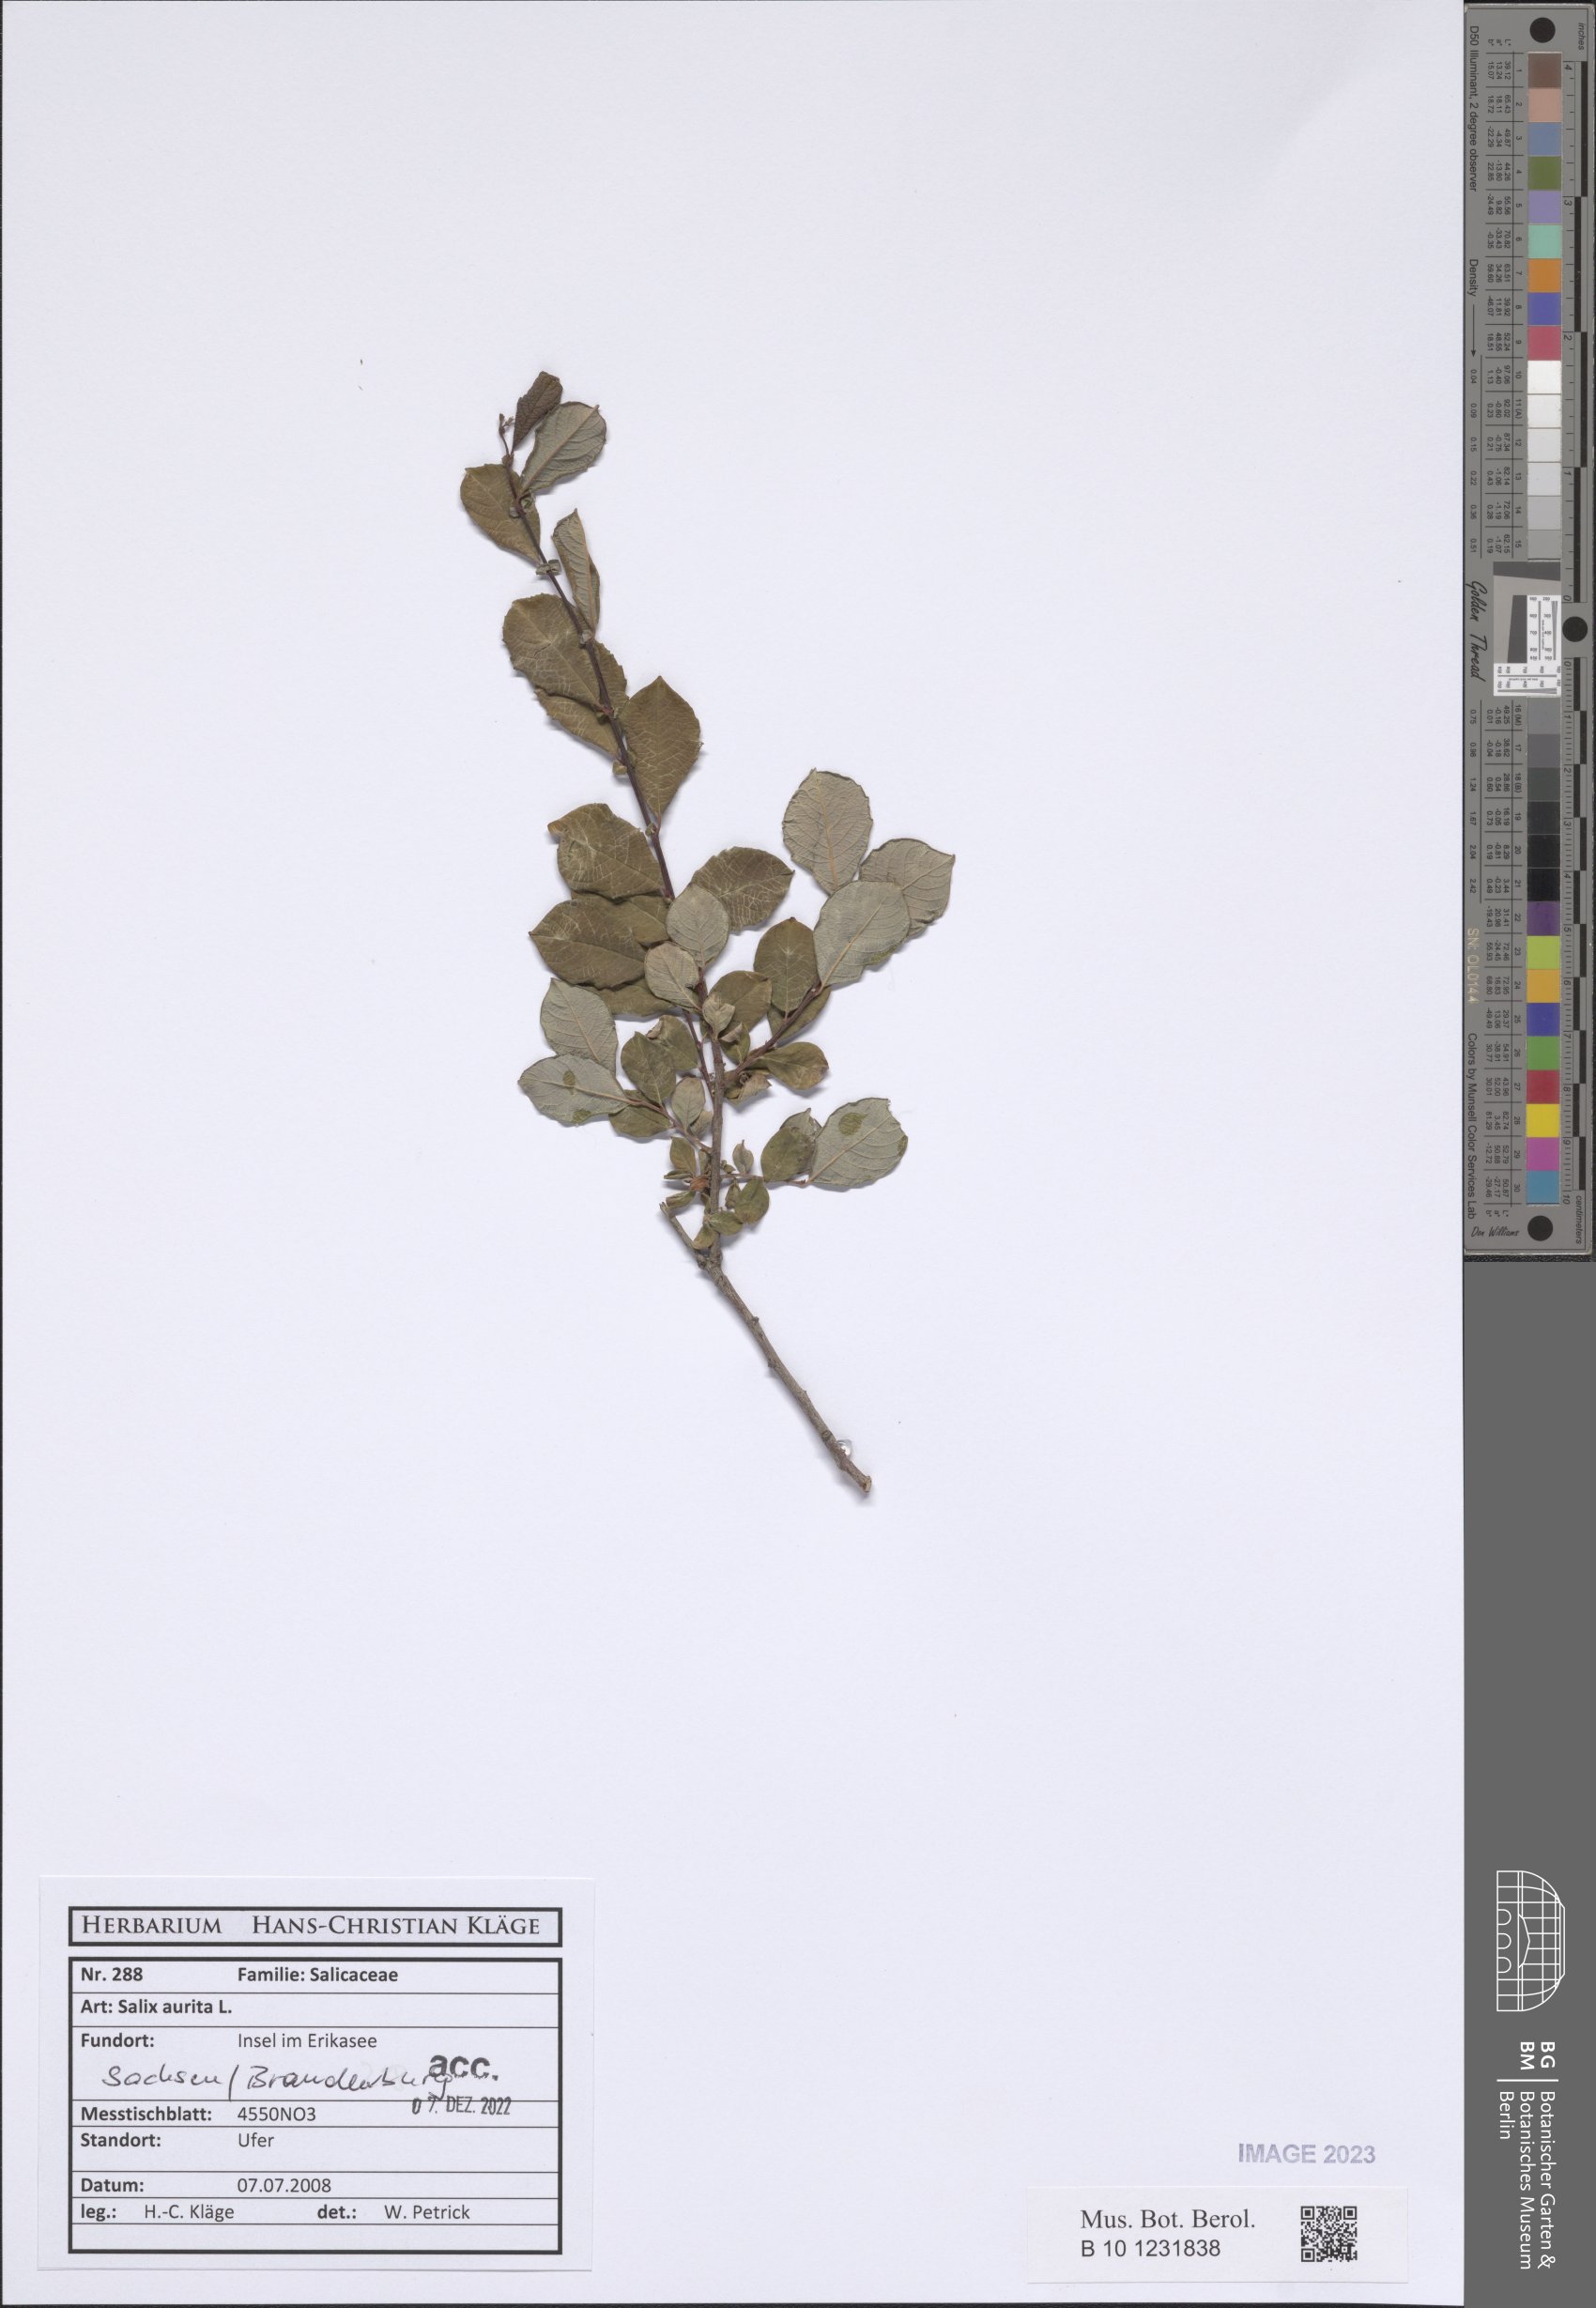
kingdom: Plantae
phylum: Tracheophyta
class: Magnoliopsida
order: Malpighiales
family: Salicaceae
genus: Salix
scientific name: Salix aurita
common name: Eared willow
